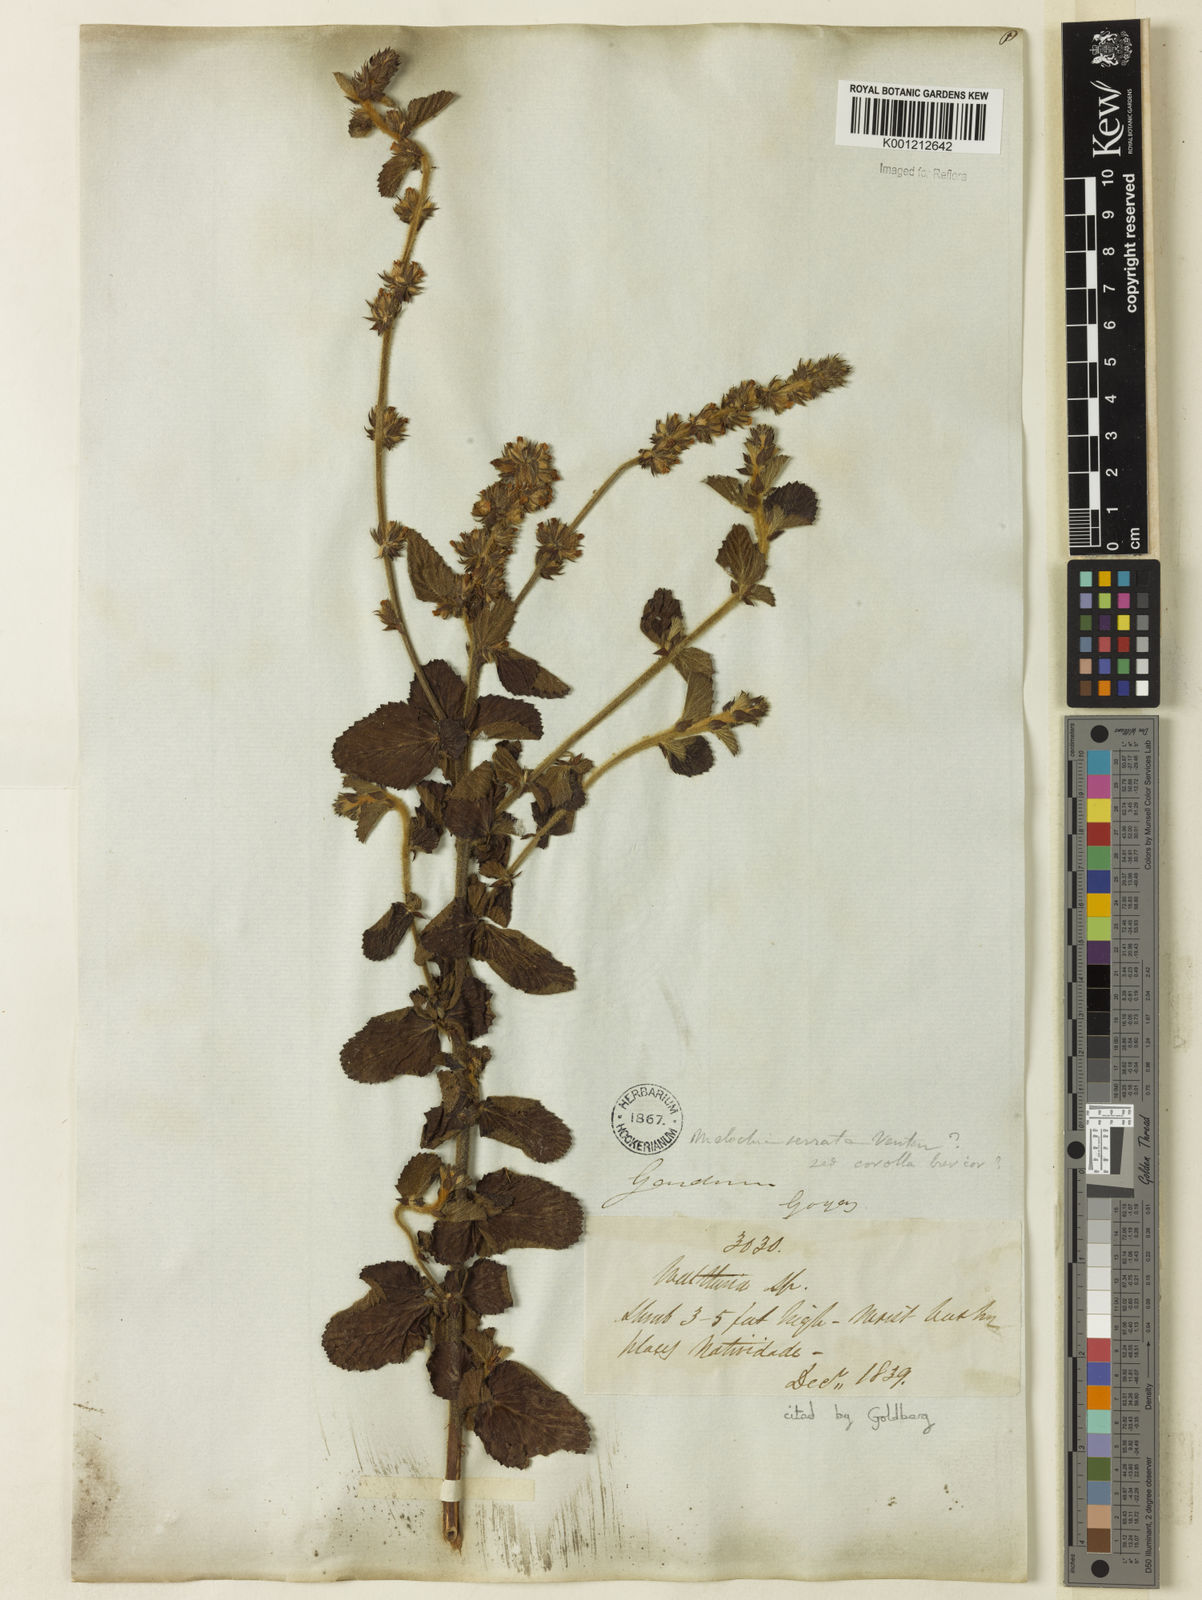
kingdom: Plantae
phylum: Tracheophyta
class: Magnoliopsida
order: Malvales
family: Malvaceae
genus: Melochia
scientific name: Melochia spicata
